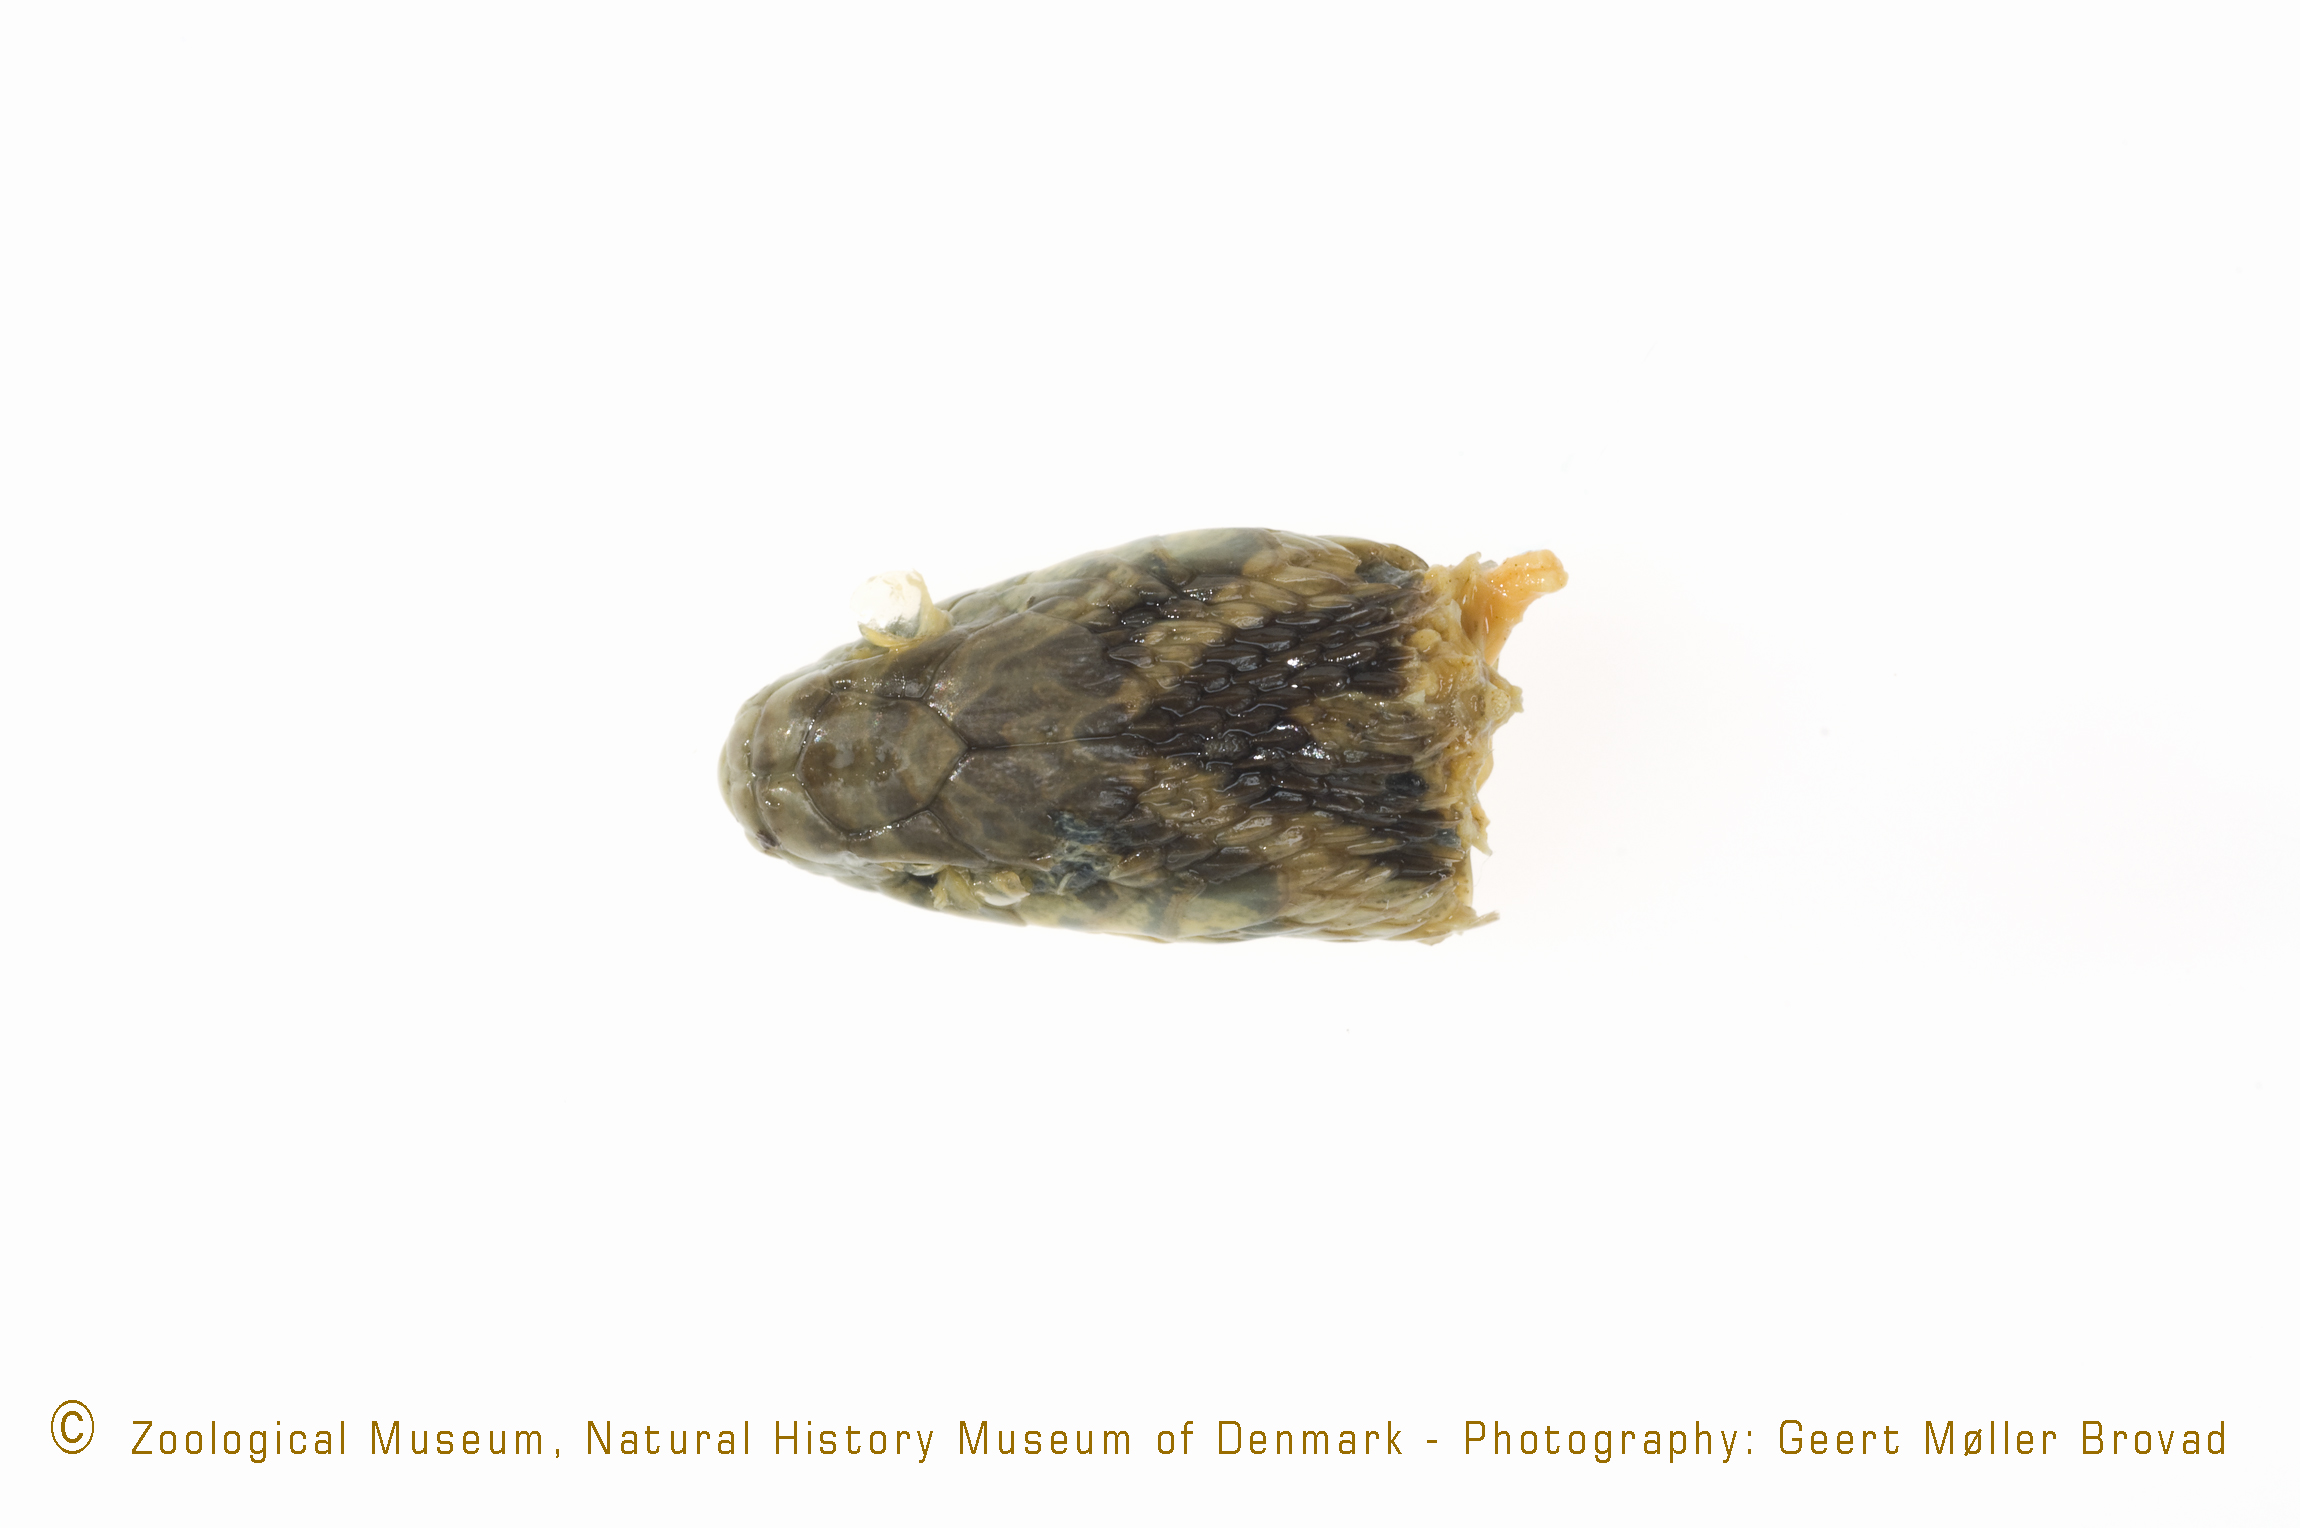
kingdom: Animalia
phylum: Chordata
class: Squamata
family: Colubridae
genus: Dasypeltis
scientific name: Dasypeltis scabra
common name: Common egg eater
